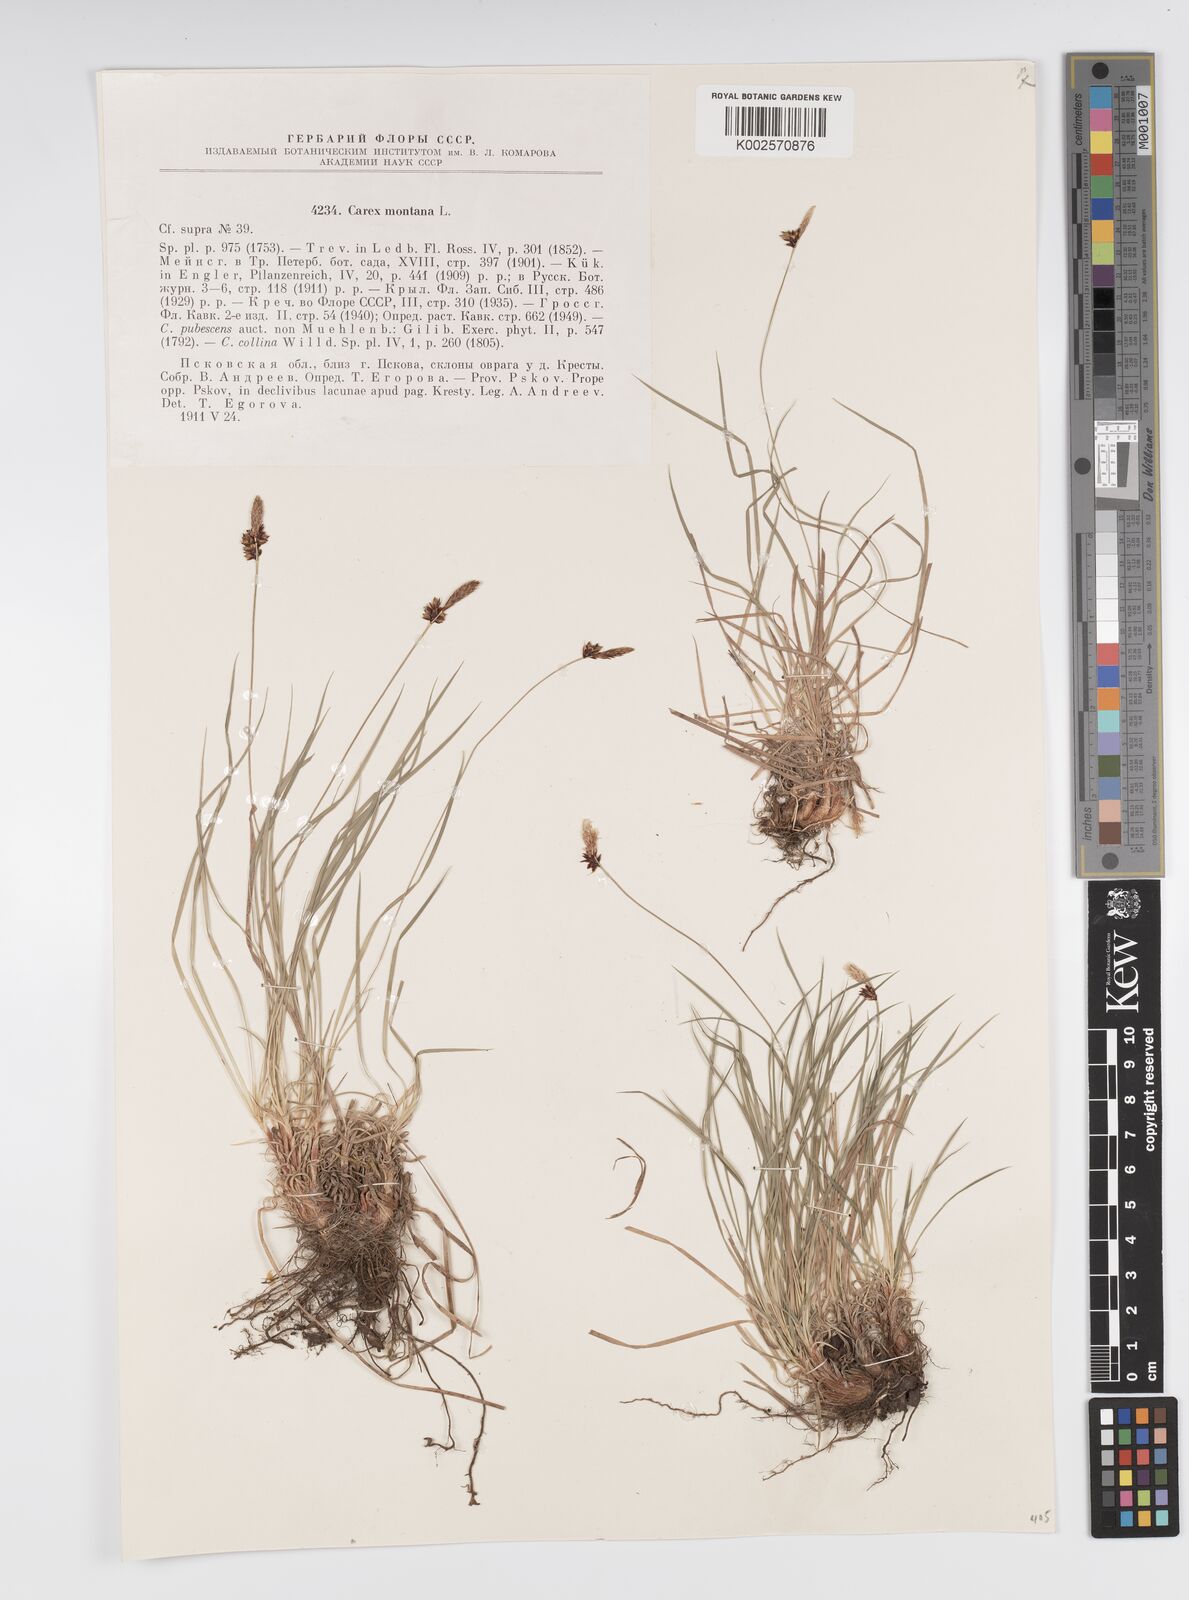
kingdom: Plantae
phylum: Tracheophyta
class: Liliopsida
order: Poales
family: Cyperaceae
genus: Carex
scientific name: Carex montana
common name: Soft-leaved sedge
